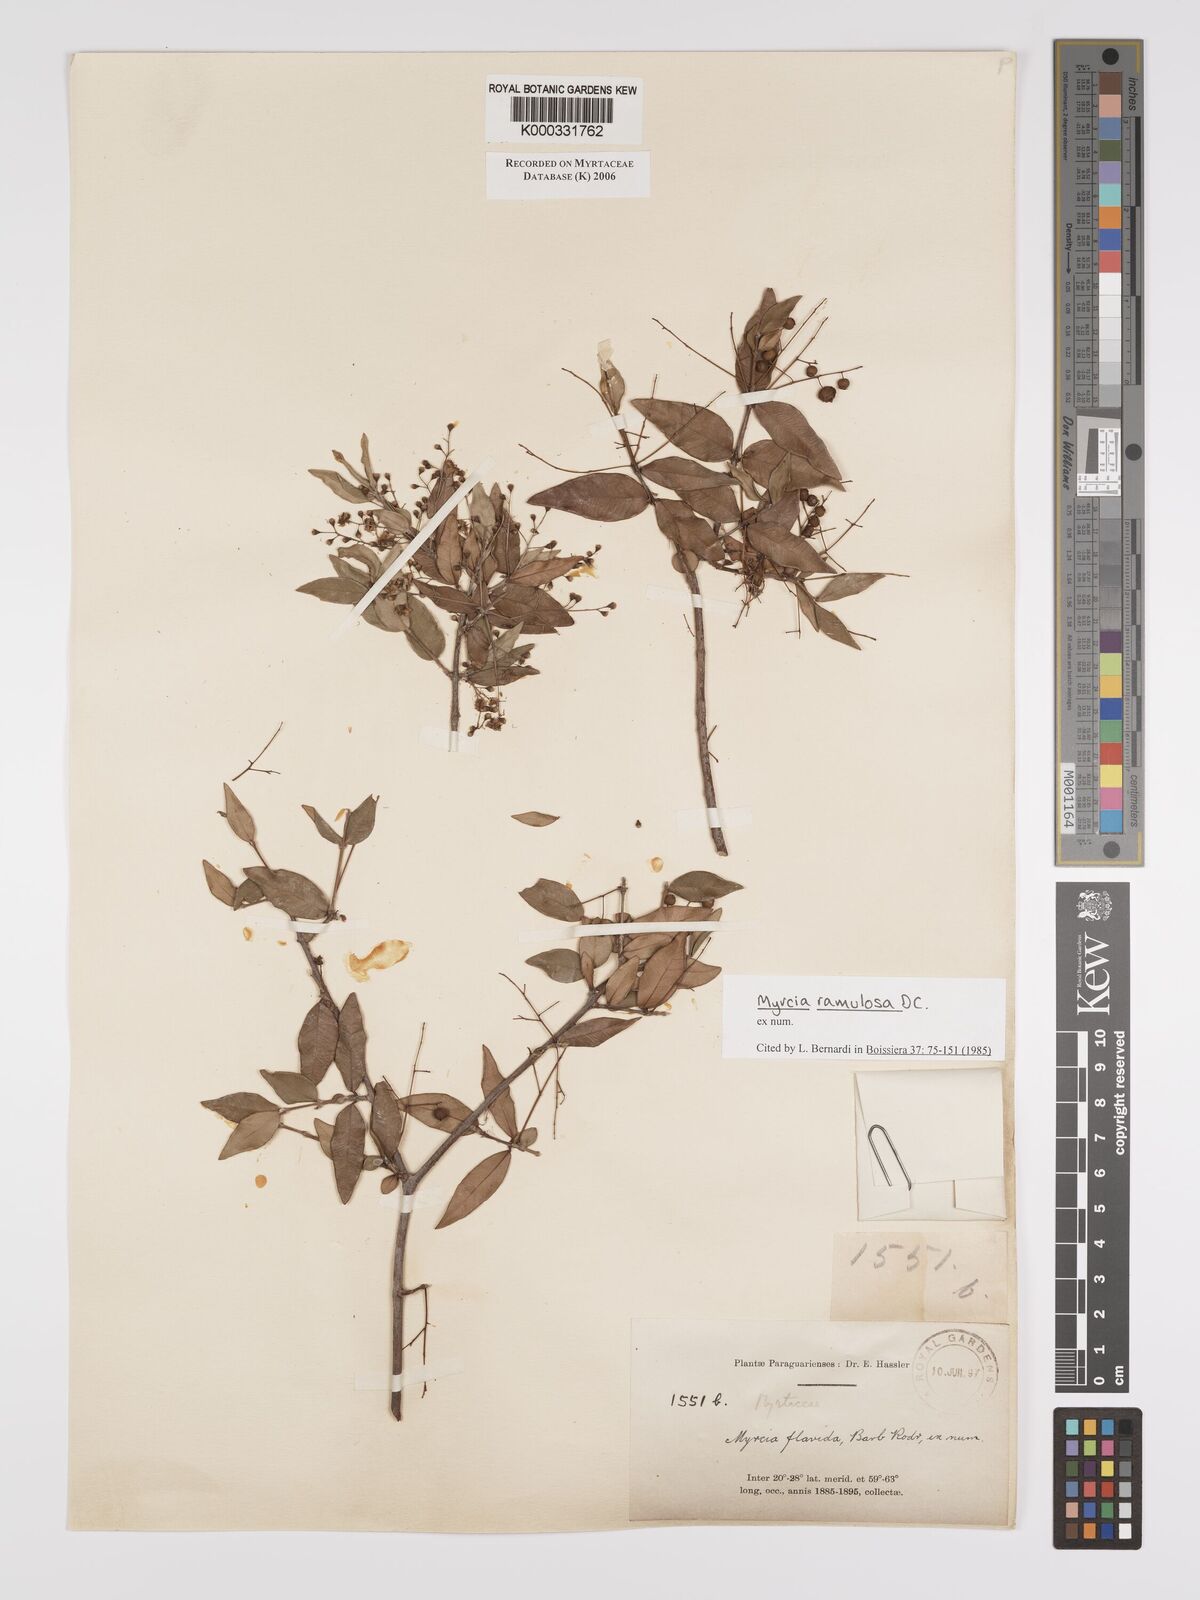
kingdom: Plantae
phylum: Tracheophyta
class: Magnoliopsida
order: Myrtales
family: Myrtaceae
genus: Myrcia
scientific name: Myrcia selloi
